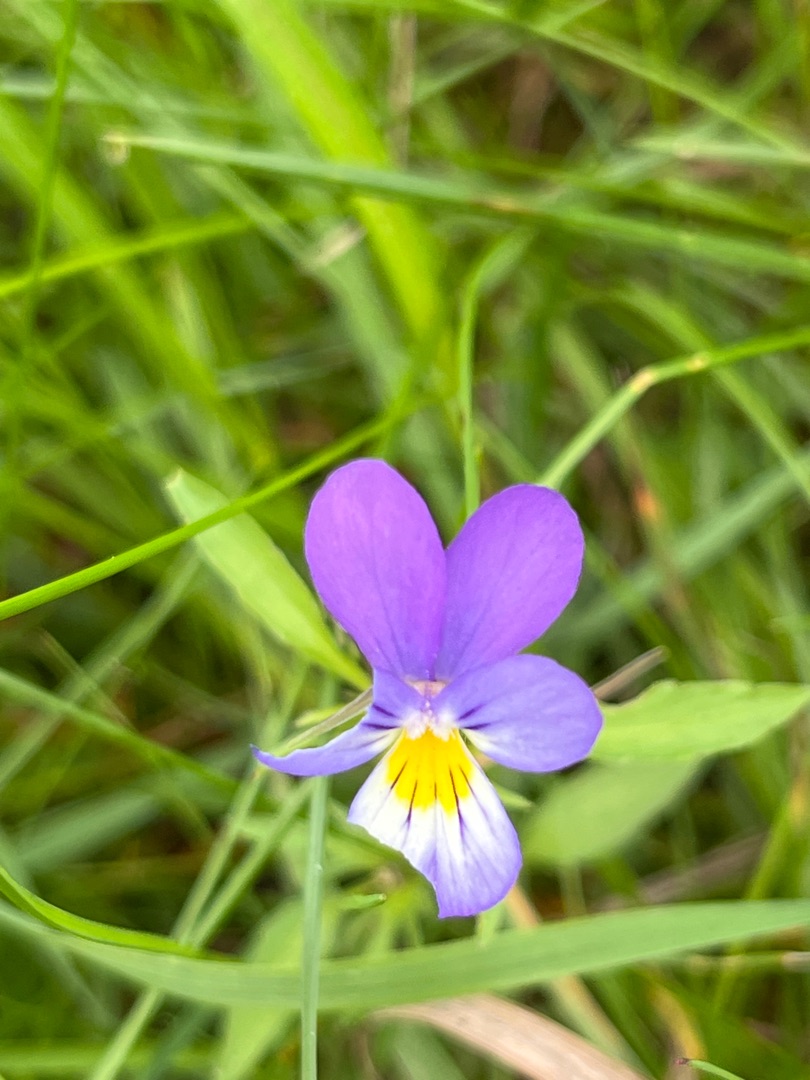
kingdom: Plantae
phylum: Tracheophyta
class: Magnoliopsida
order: Malpighiales
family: Violaceae
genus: Viola
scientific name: Viola tricolor
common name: Stedmoderblomst
